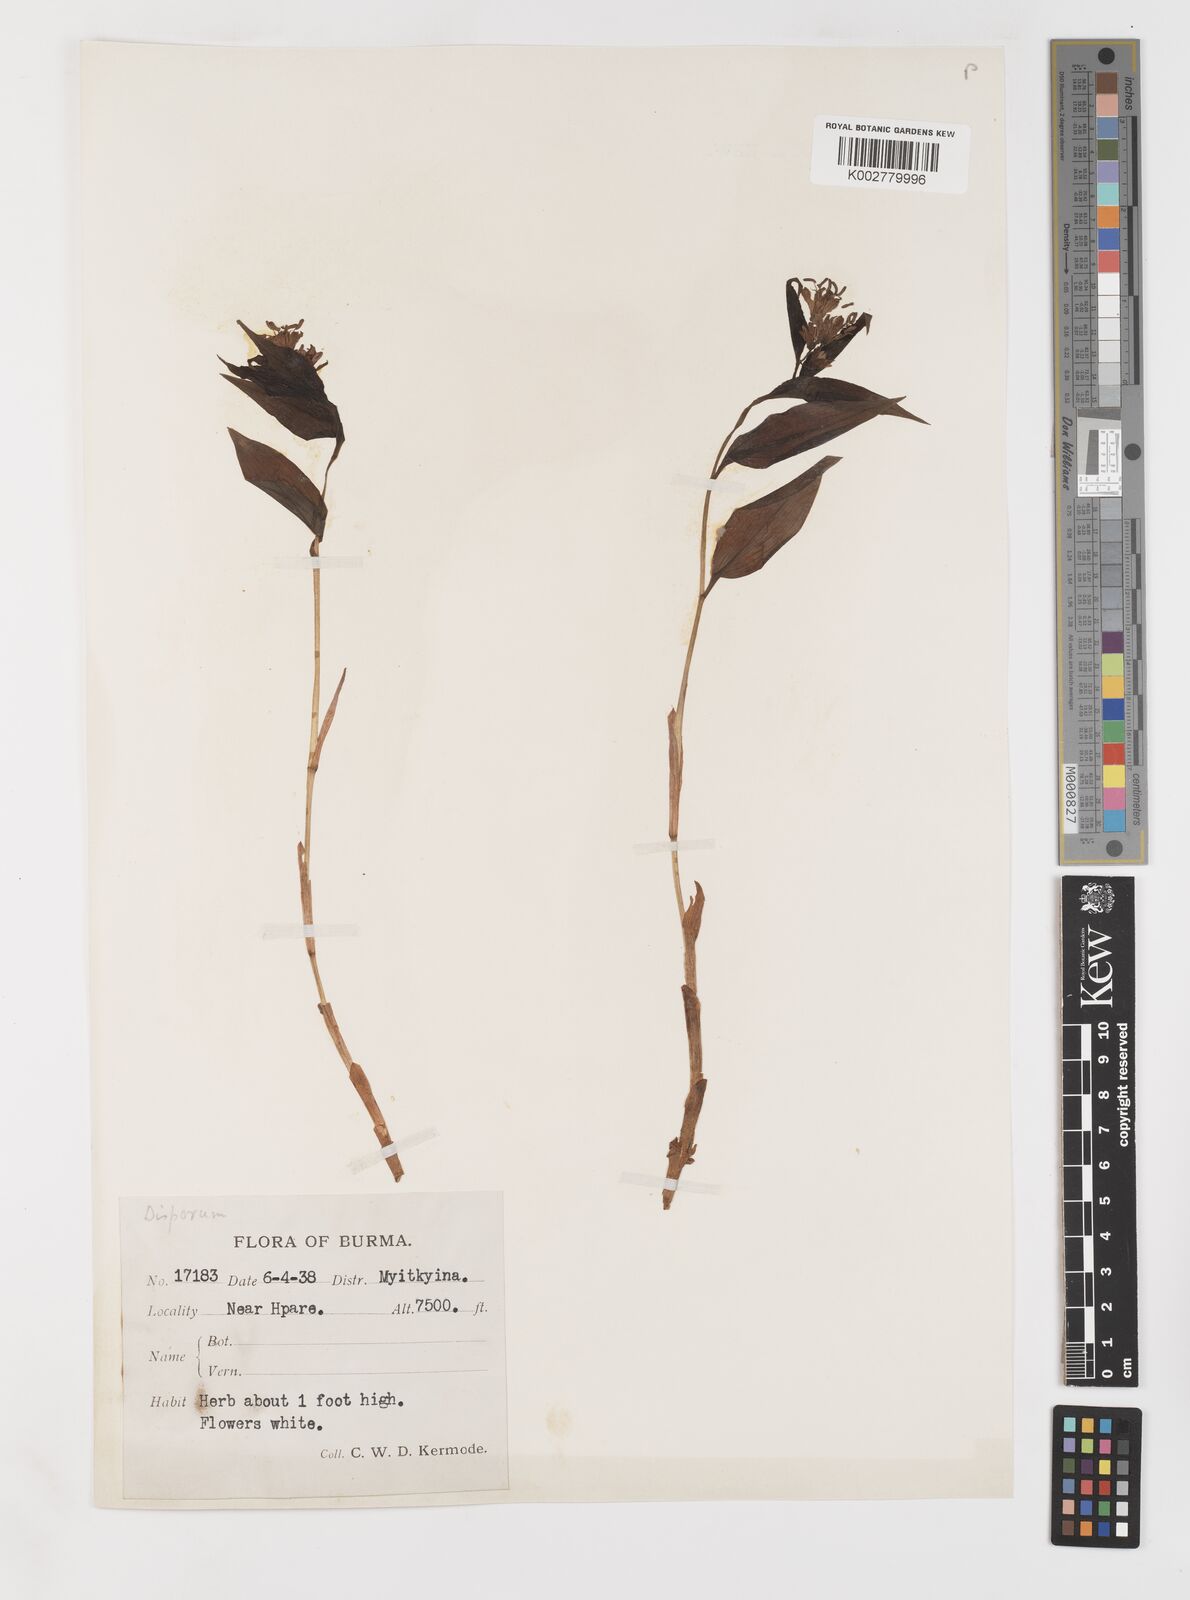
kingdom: Plantae
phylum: Tracheophyta
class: Liliopsida
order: Liliales
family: Colchicaceae
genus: Disporum
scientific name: Disporum
